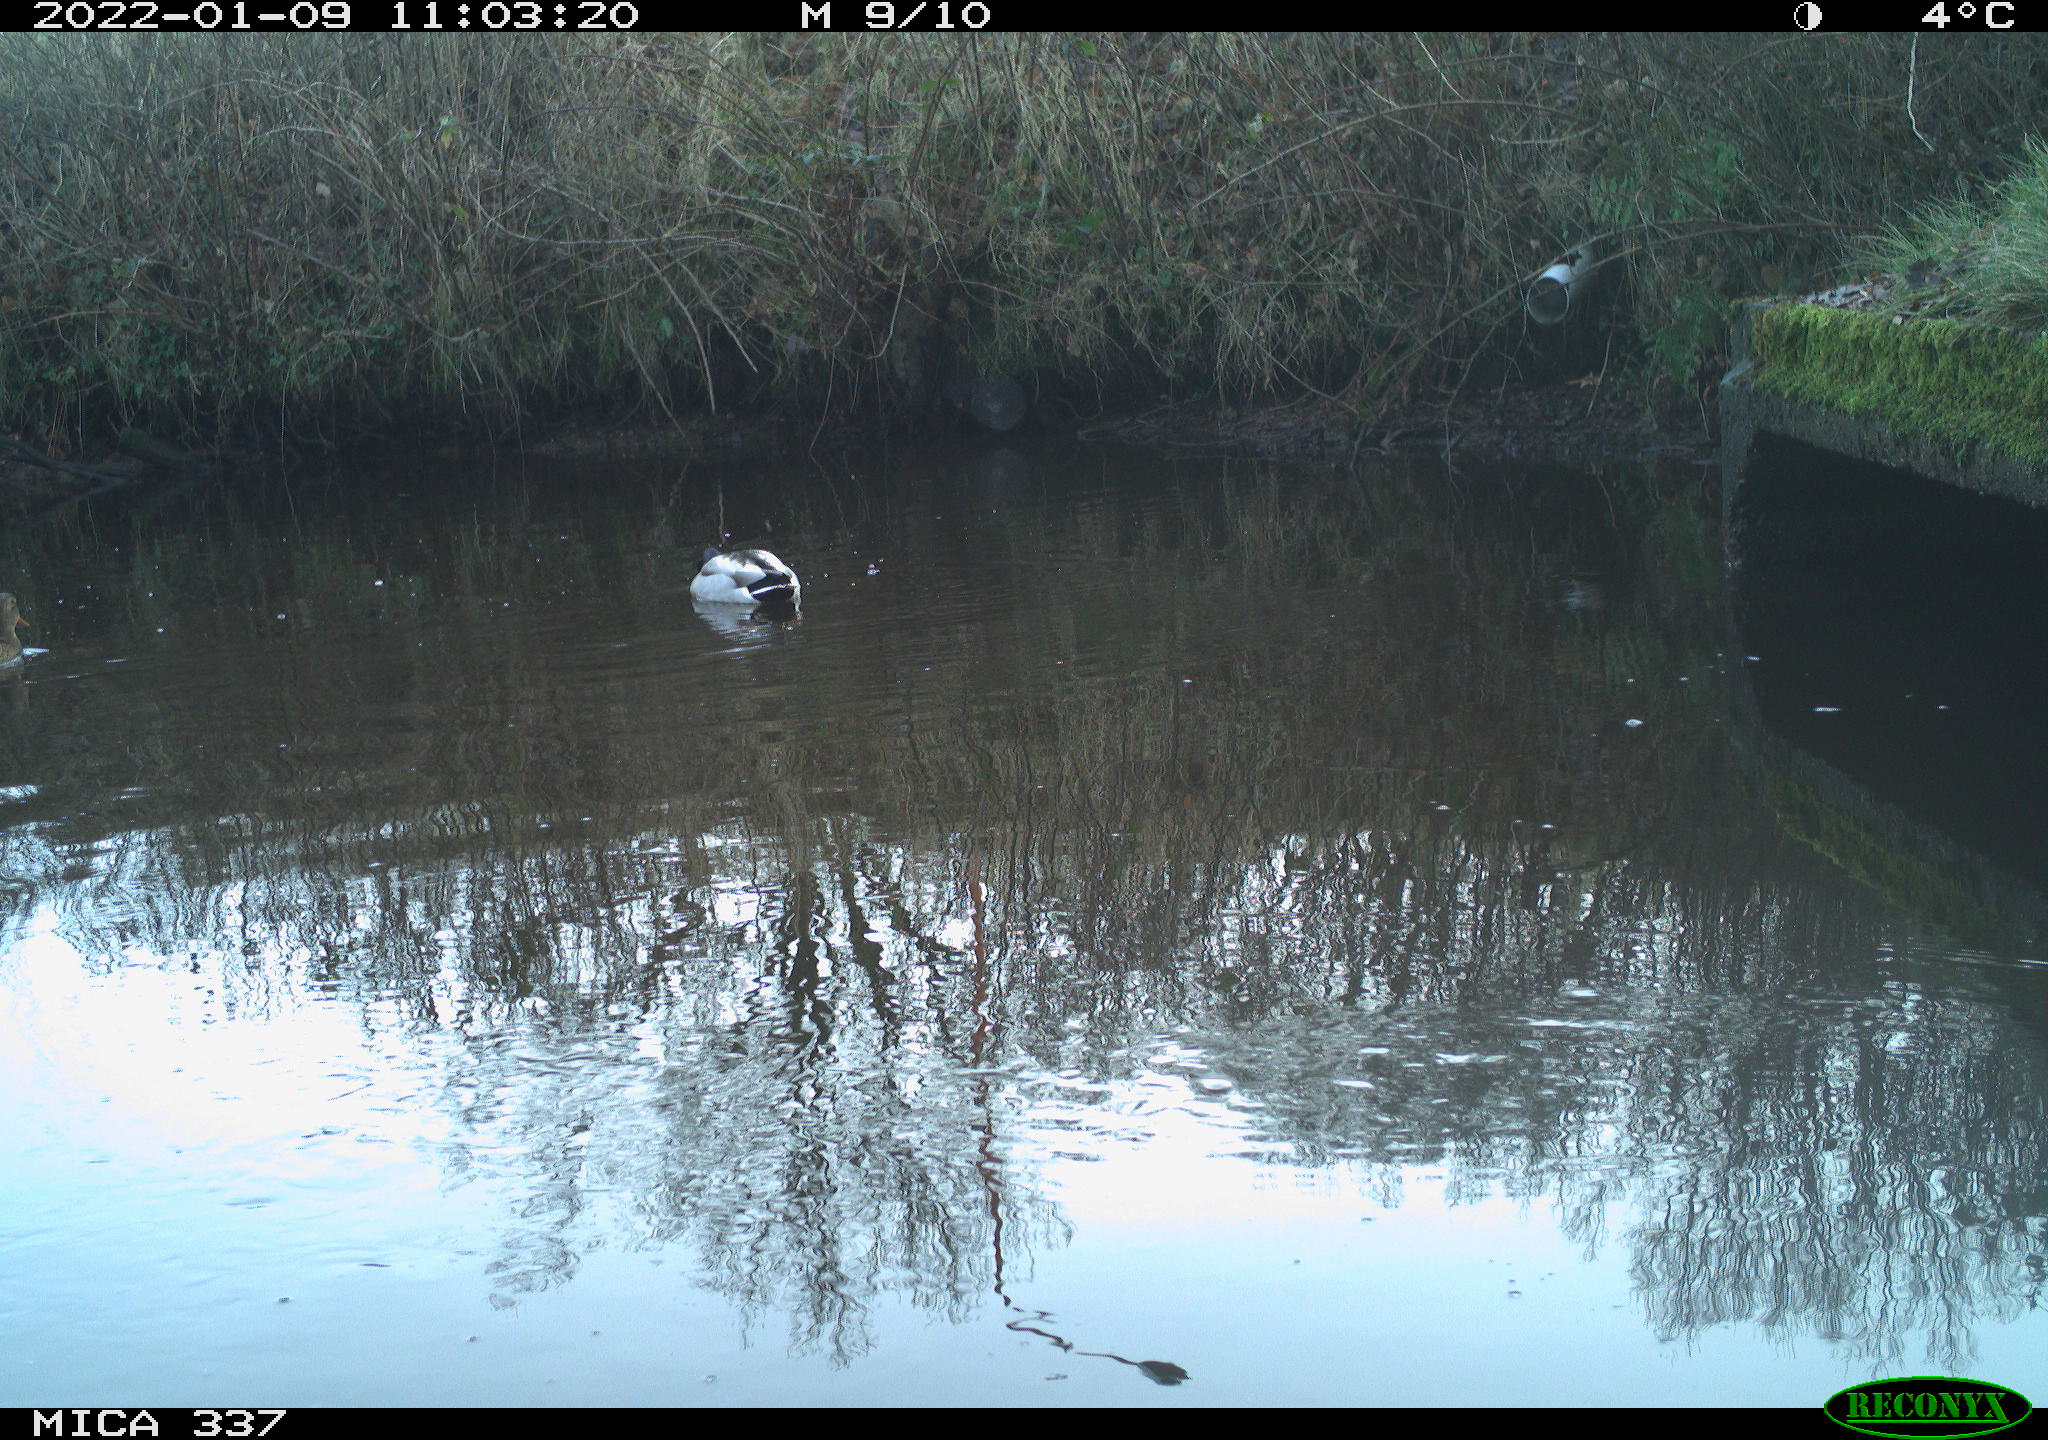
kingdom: Animalia
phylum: Chordata
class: Aves
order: Anseriformes
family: Anatidae
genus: Anas
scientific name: Anas platyrhynchos
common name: Mallard
